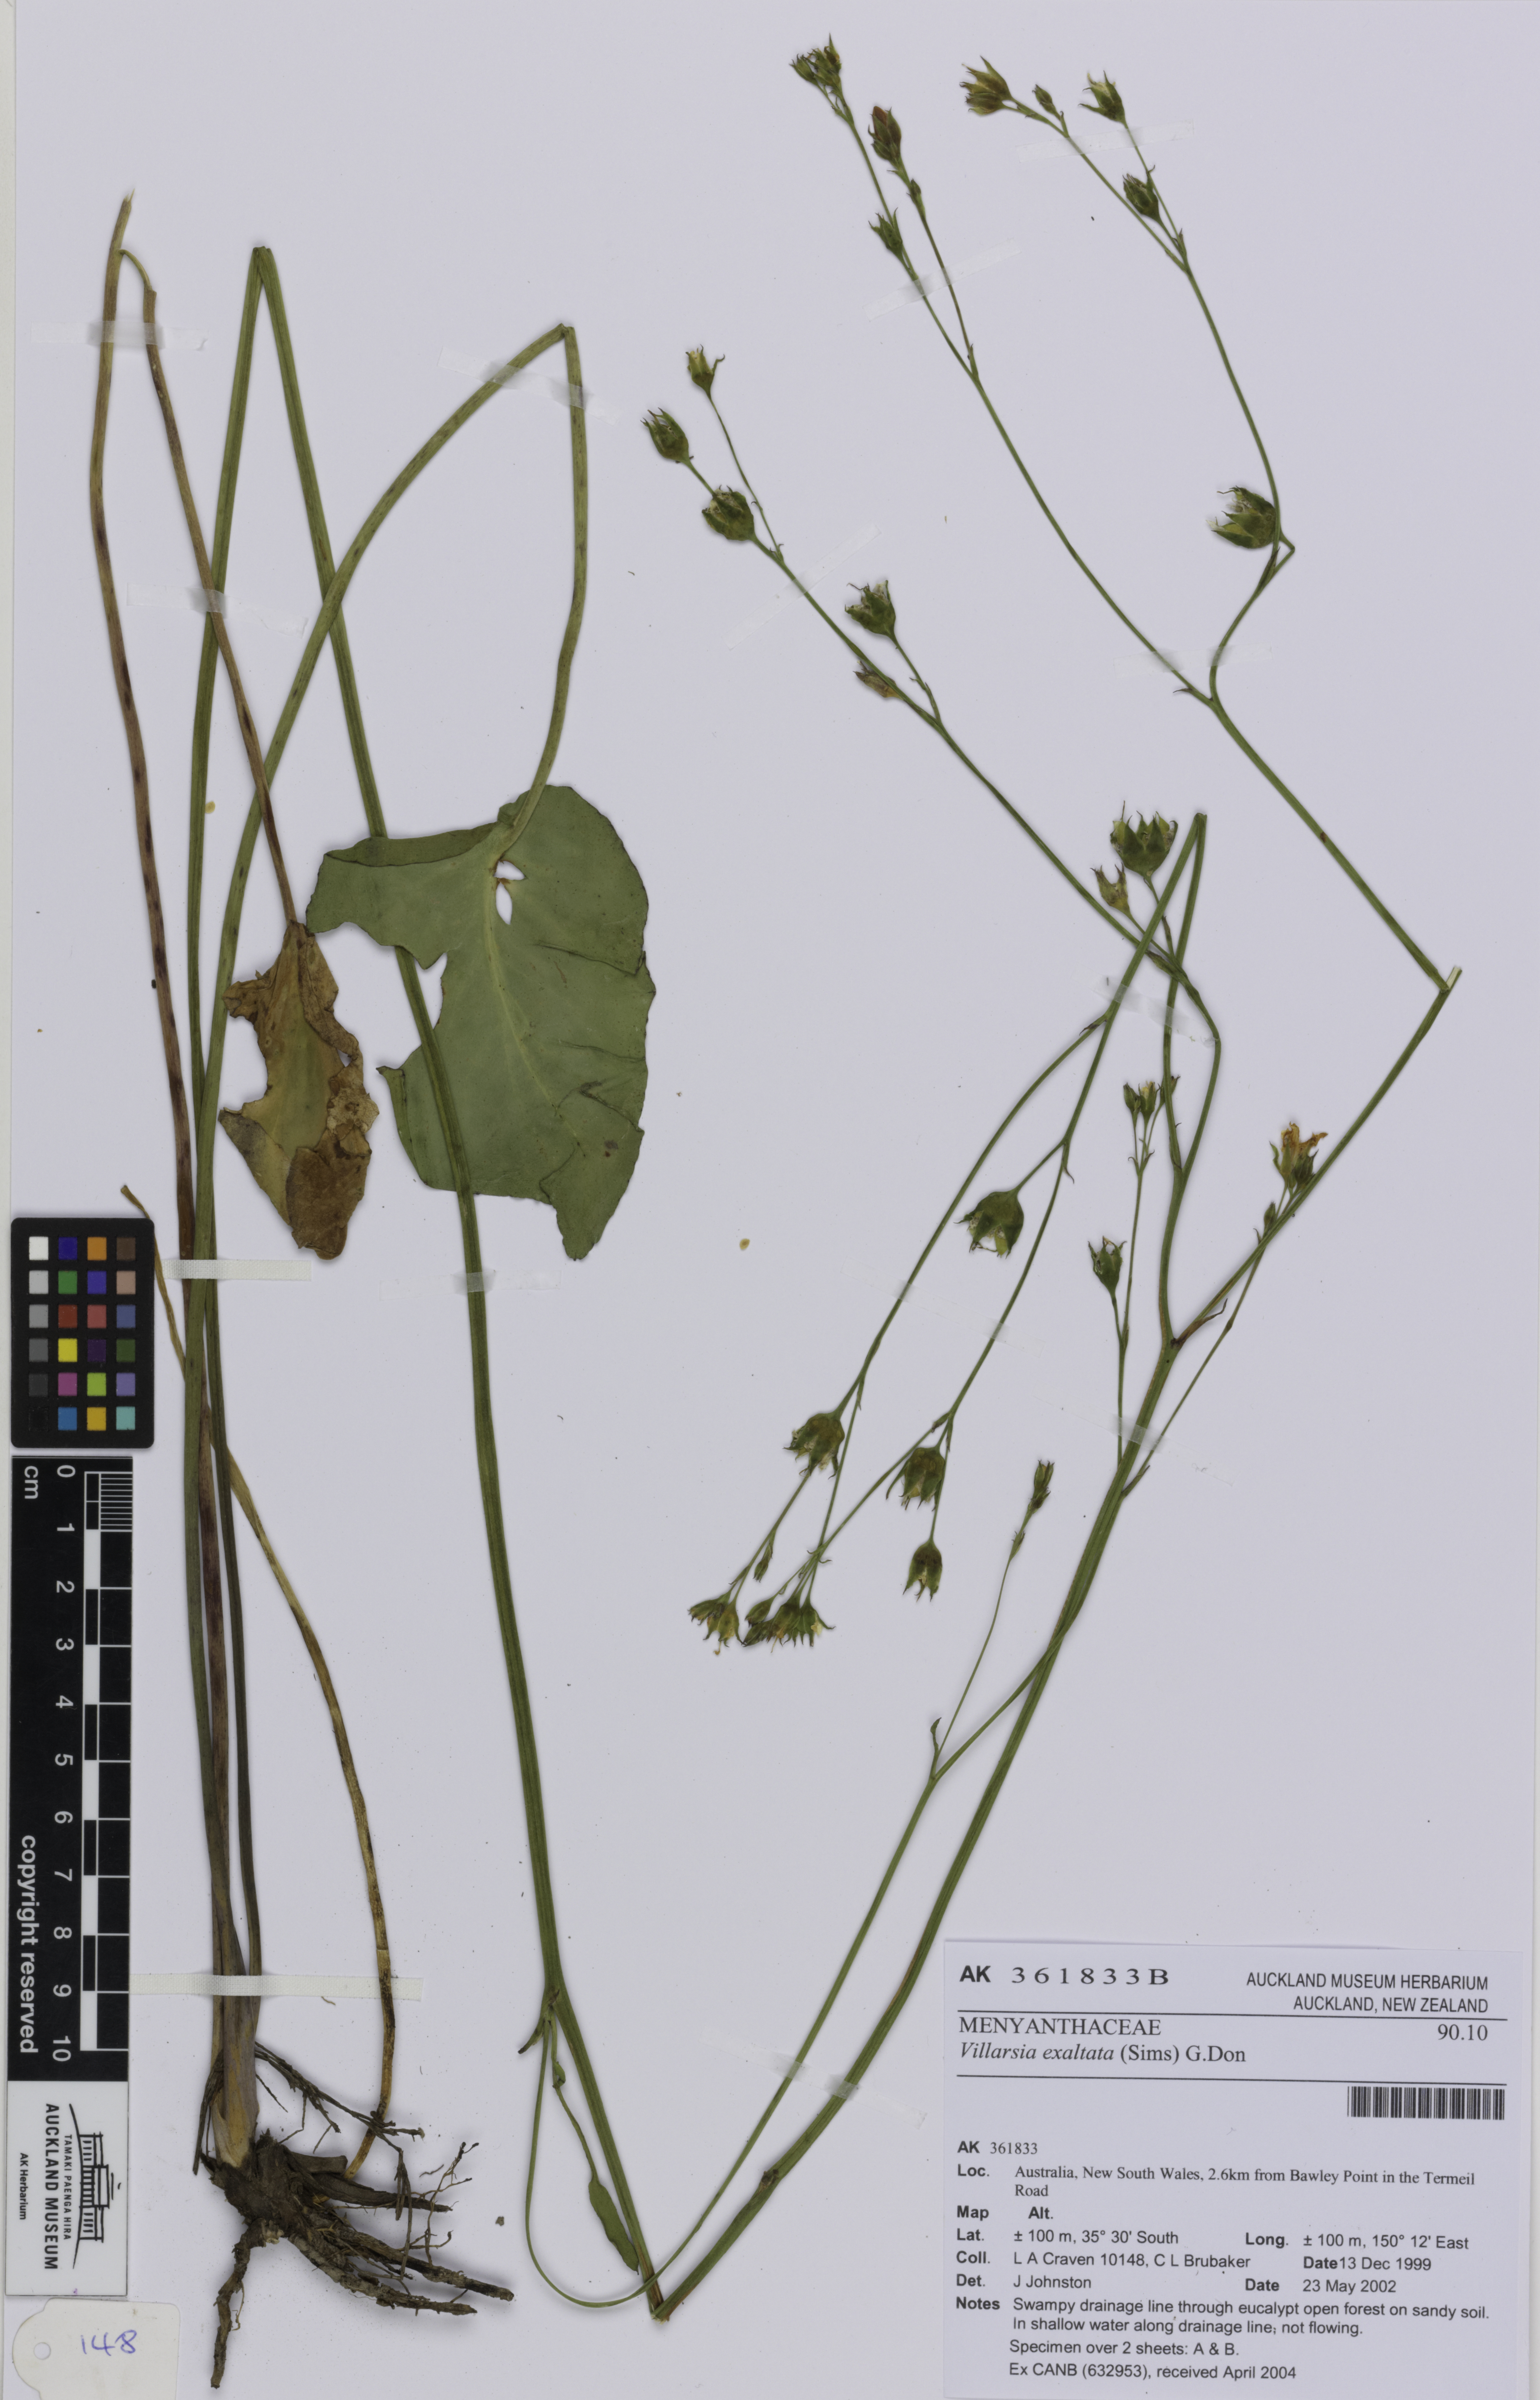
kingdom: Plantae
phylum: Tracheophyta
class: Magnoliopsida
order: Asterales
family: Menyanthaceae
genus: Liparophyllum
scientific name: Liparophyllum exaltatum
